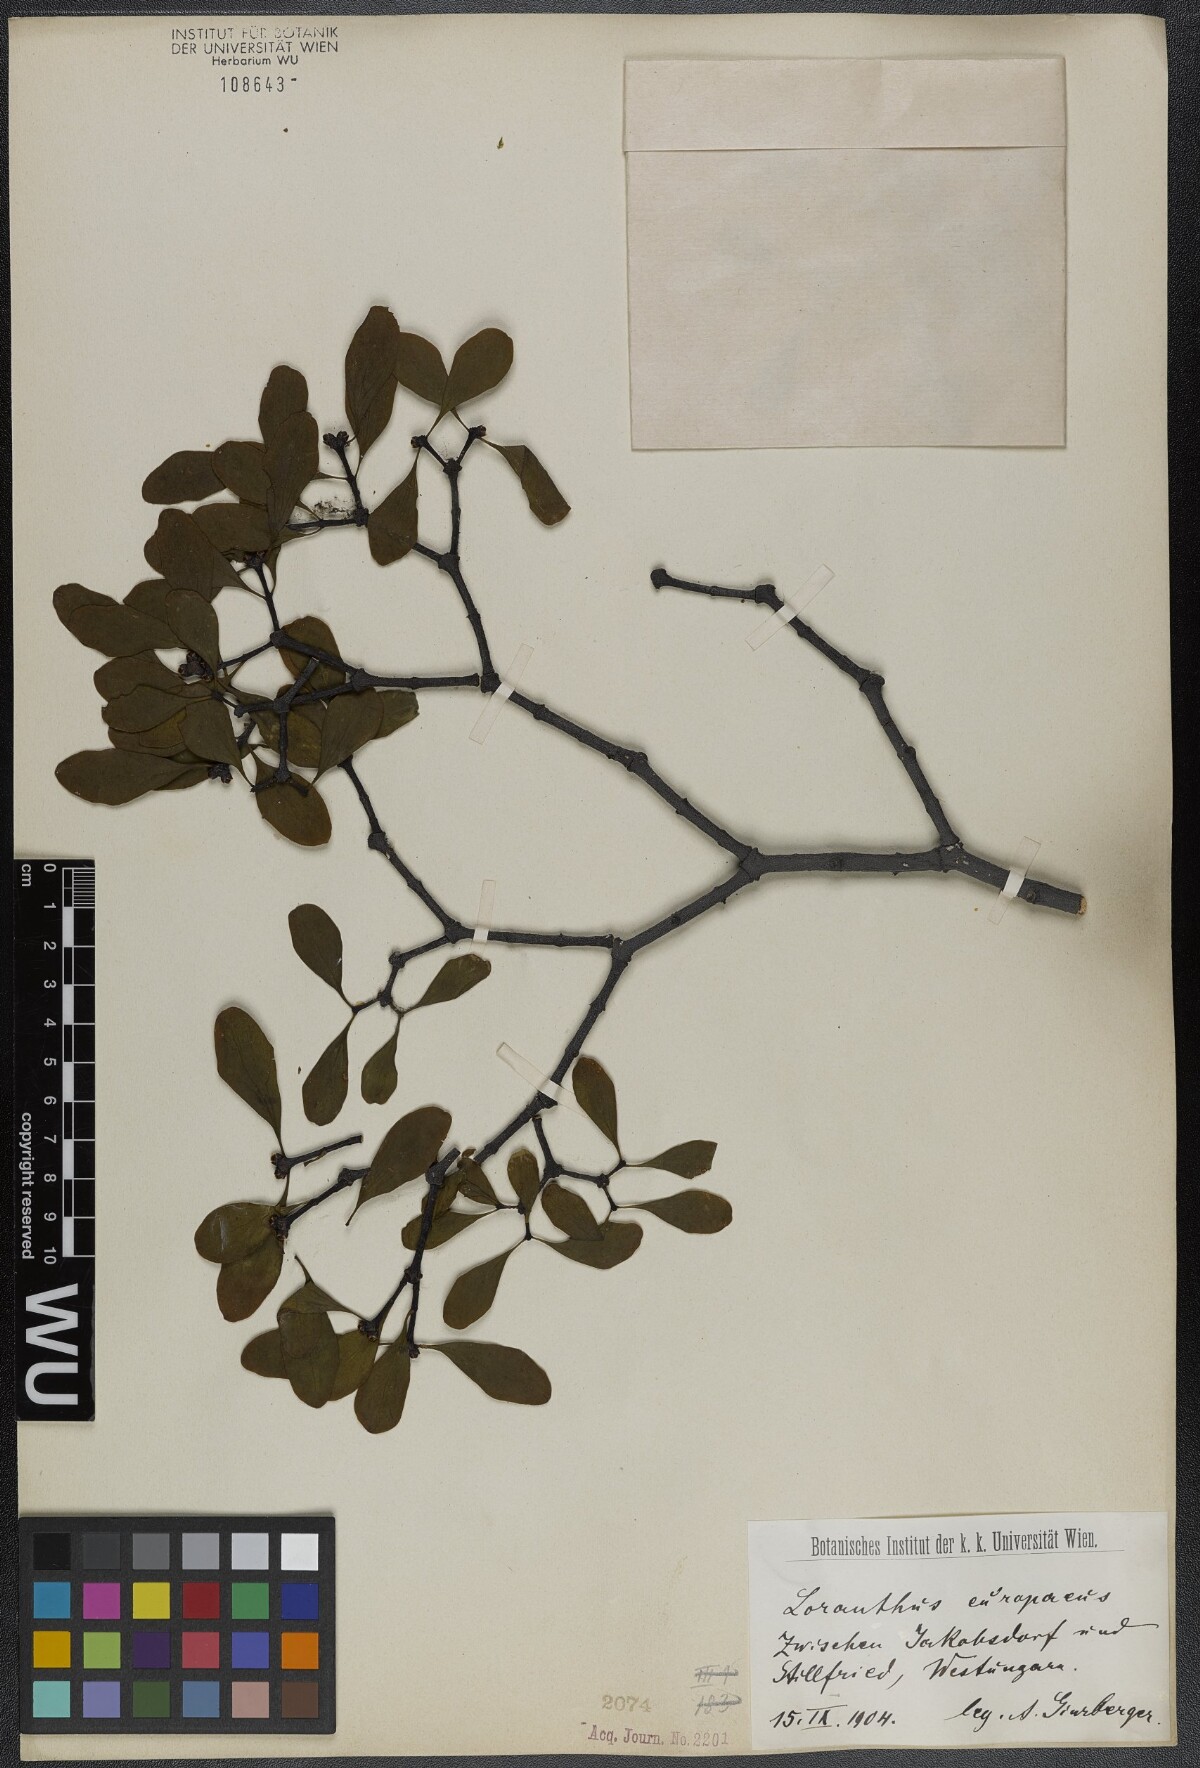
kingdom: Plantae
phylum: Tracheophyta
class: Magnoliopsida
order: Santalales
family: Loranthaceae
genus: Loranthus
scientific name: Loranthus europaeus
